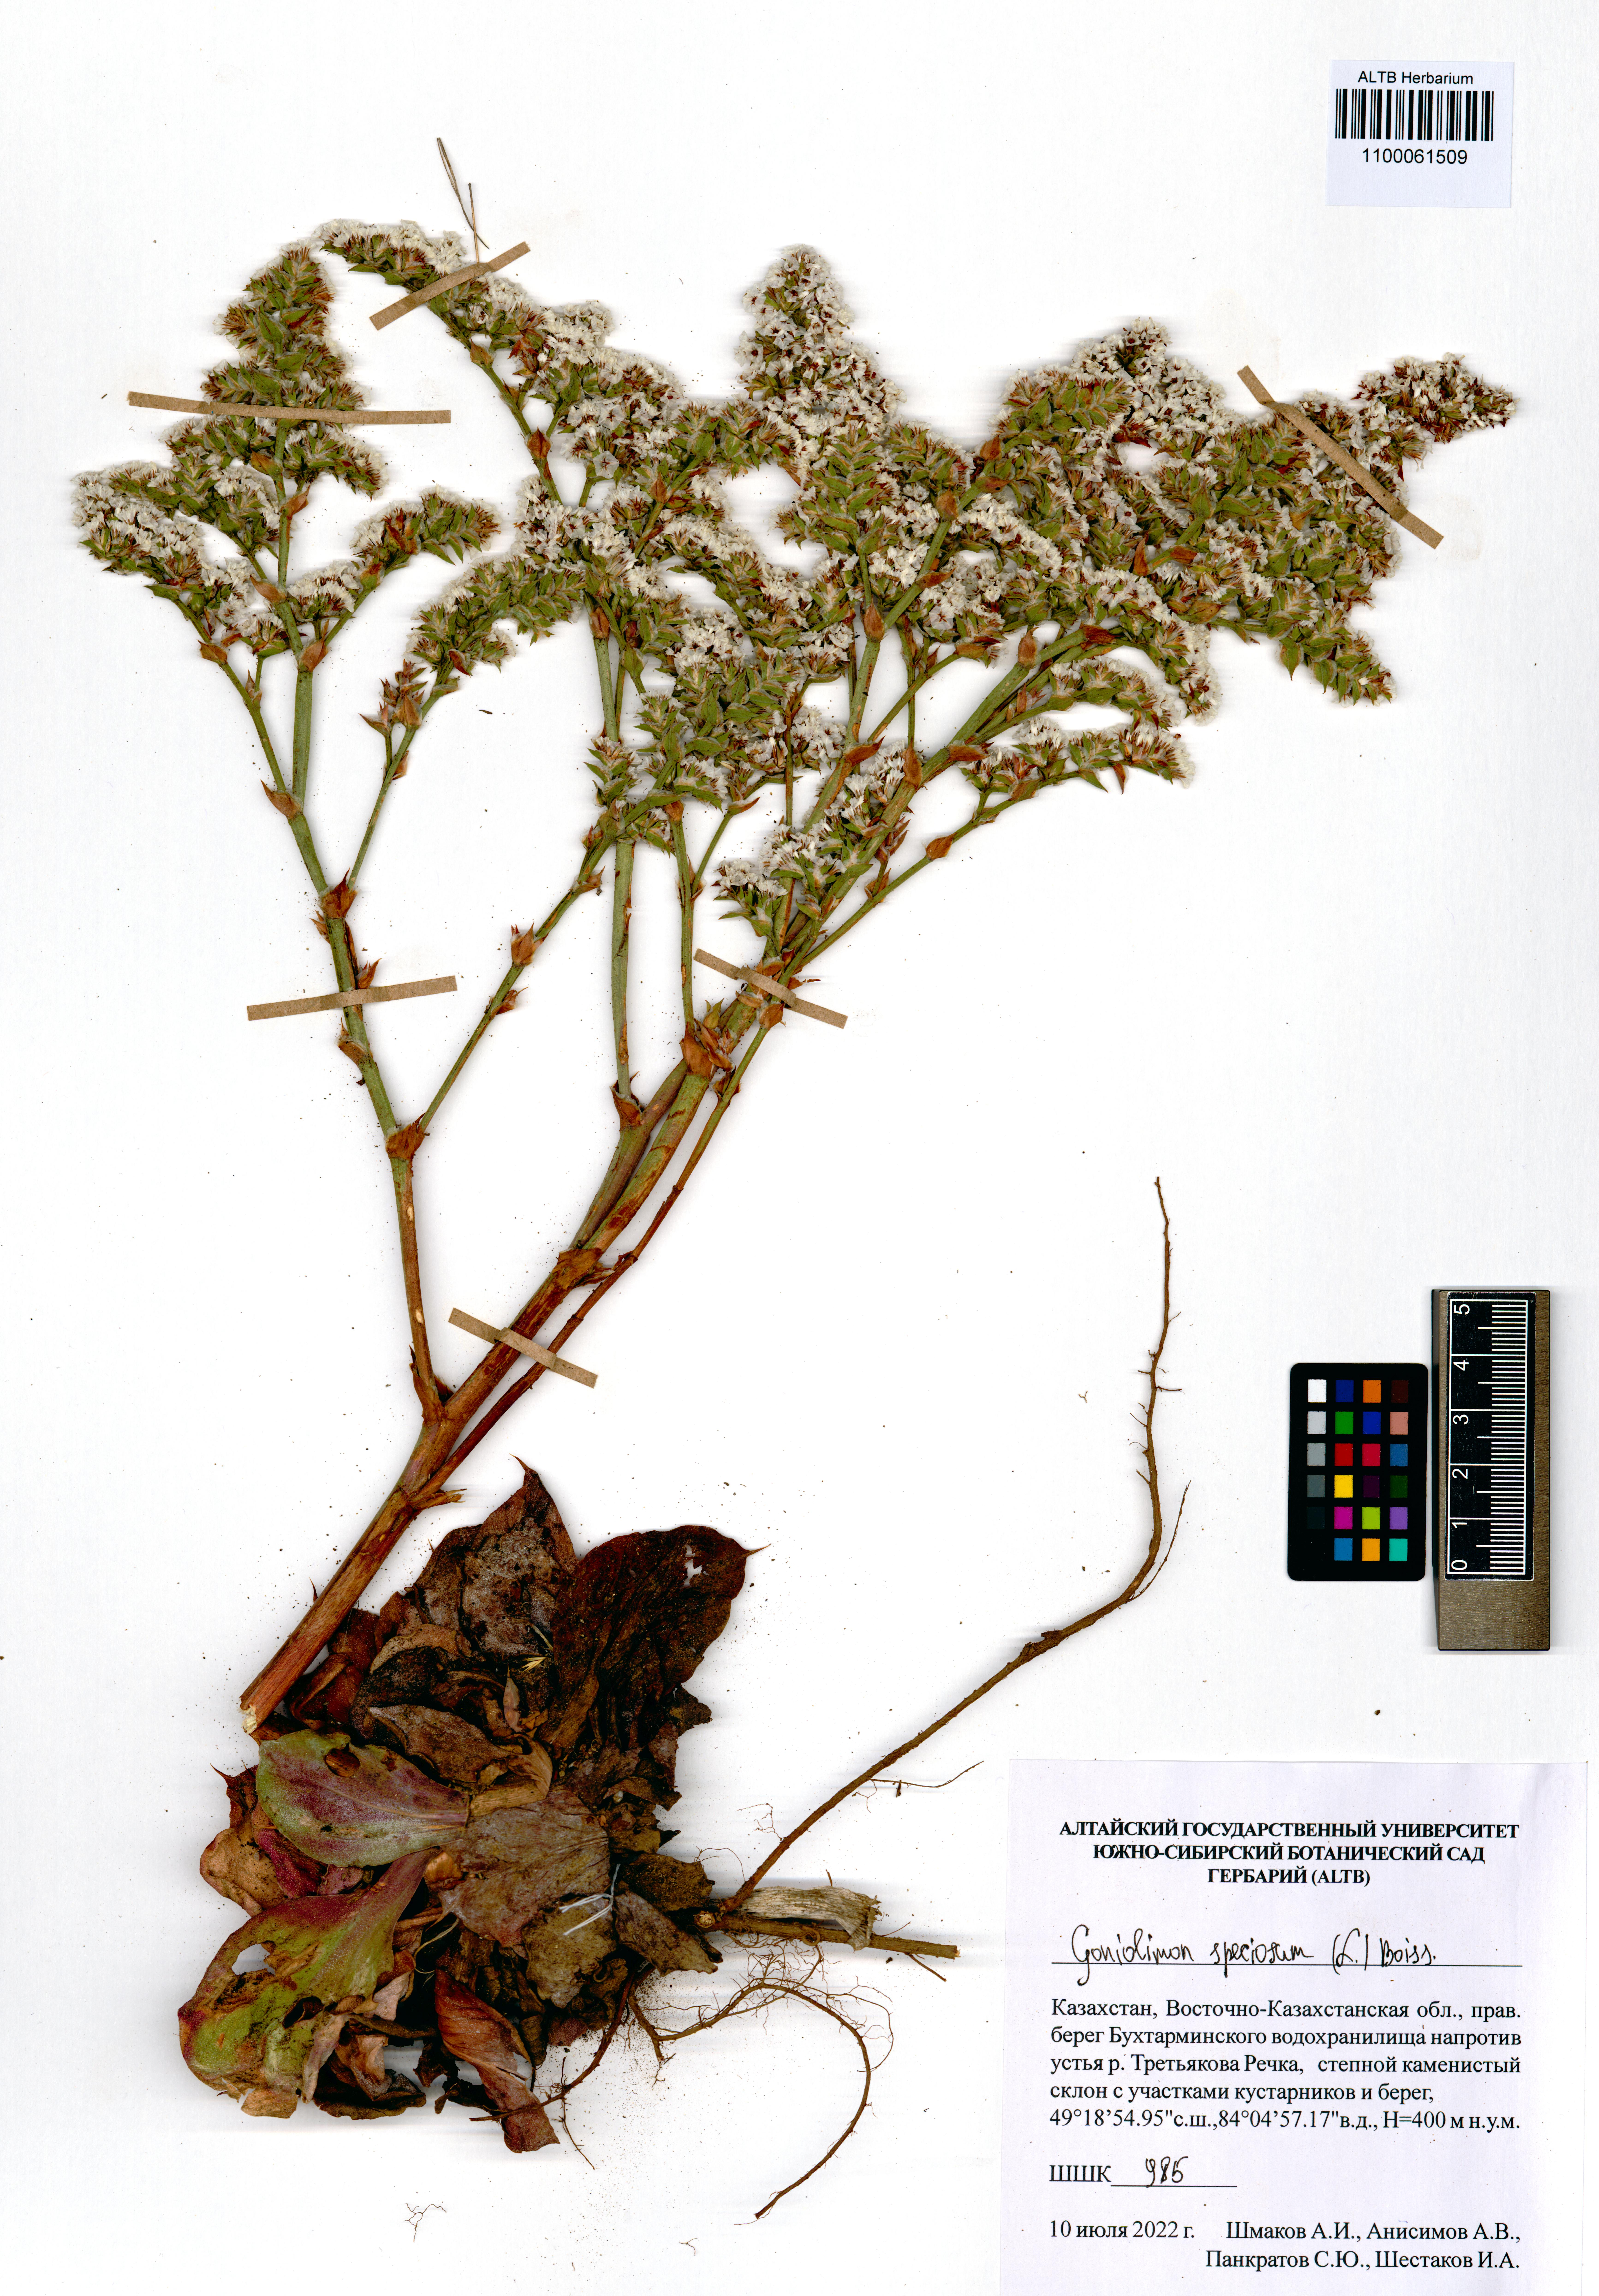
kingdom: Plantae
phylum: Tracheophyta
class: Magnoliopsida
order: Caryophyllales
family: Plumbaginaceae
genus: Goniolimon
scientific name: Goniolimon speciosum
